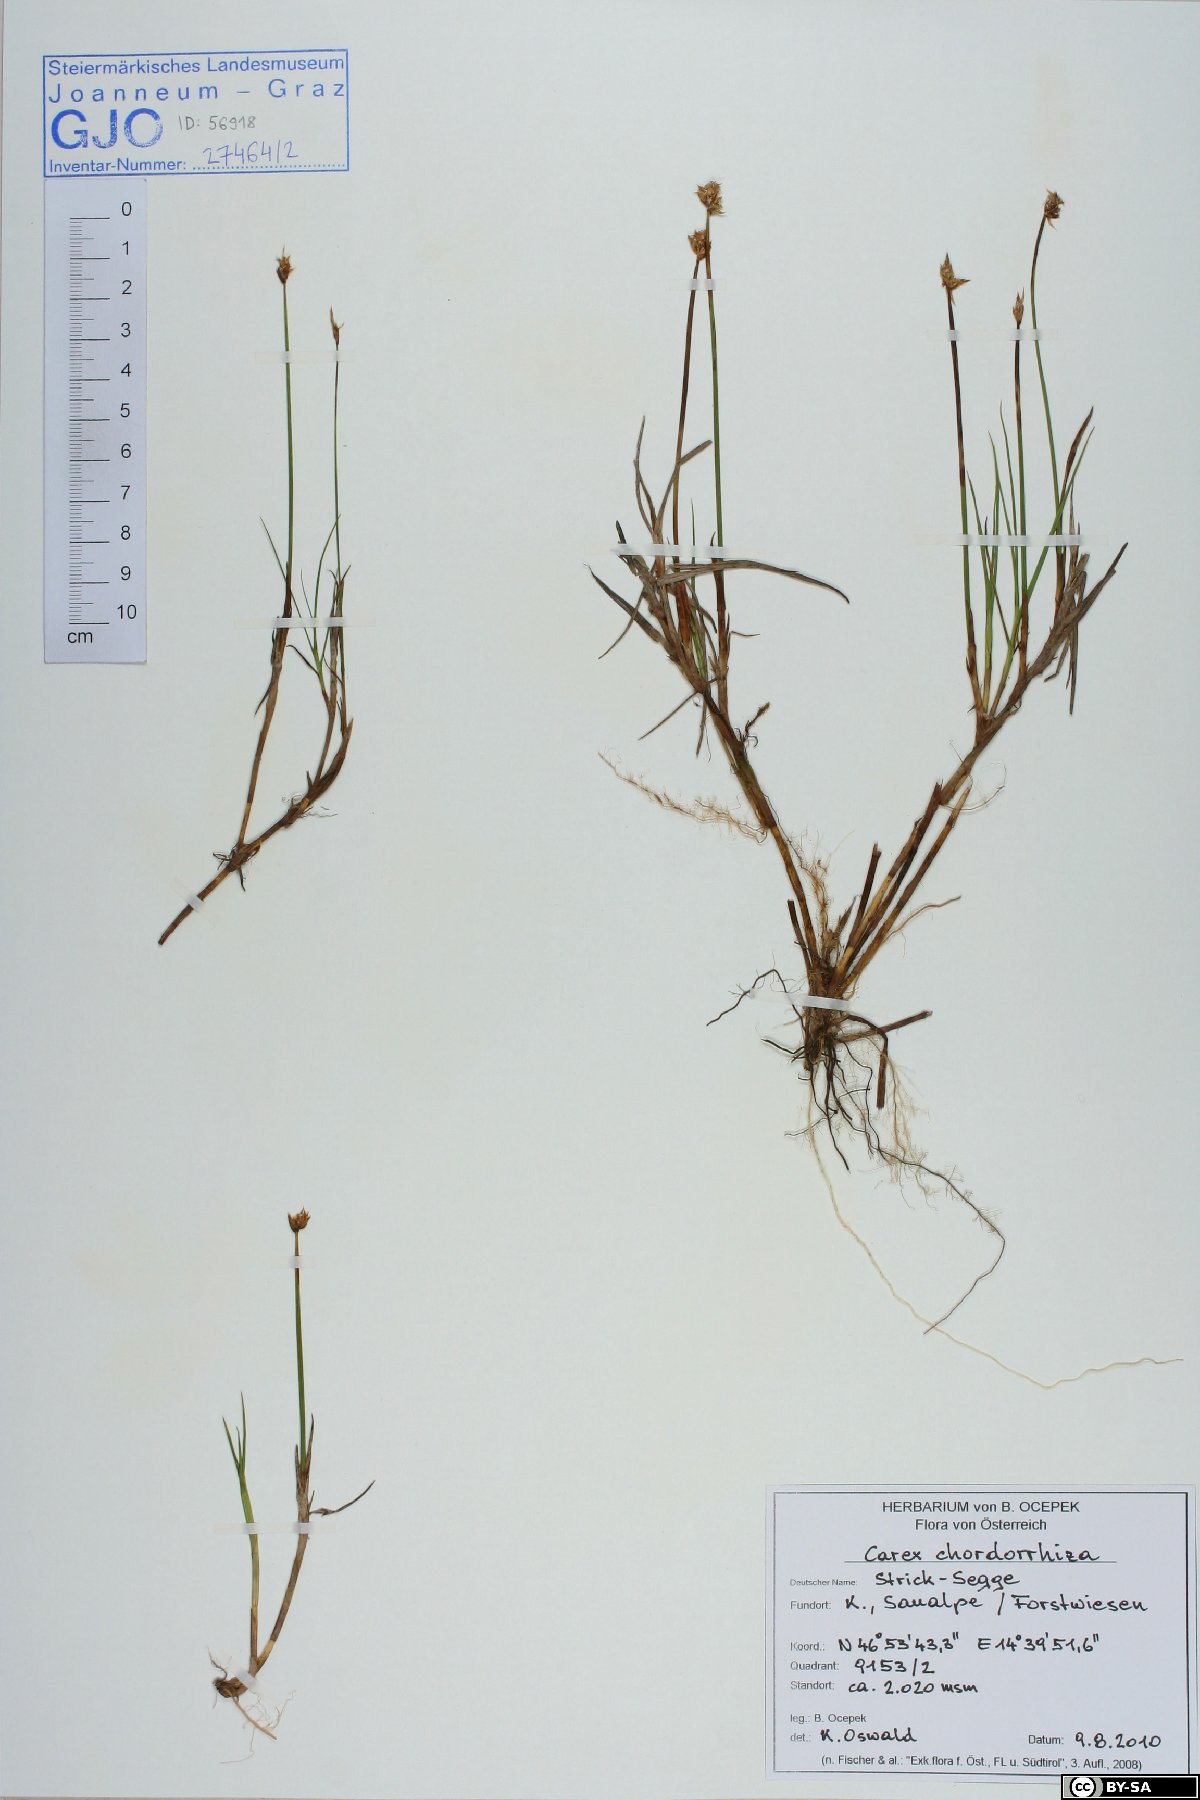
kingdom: Plantae
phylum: Tracheophyta
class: Liliopsida
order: Poales
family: Cyperaceae
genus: Carex
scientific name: Carex chordorrhiza
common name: String sedge
